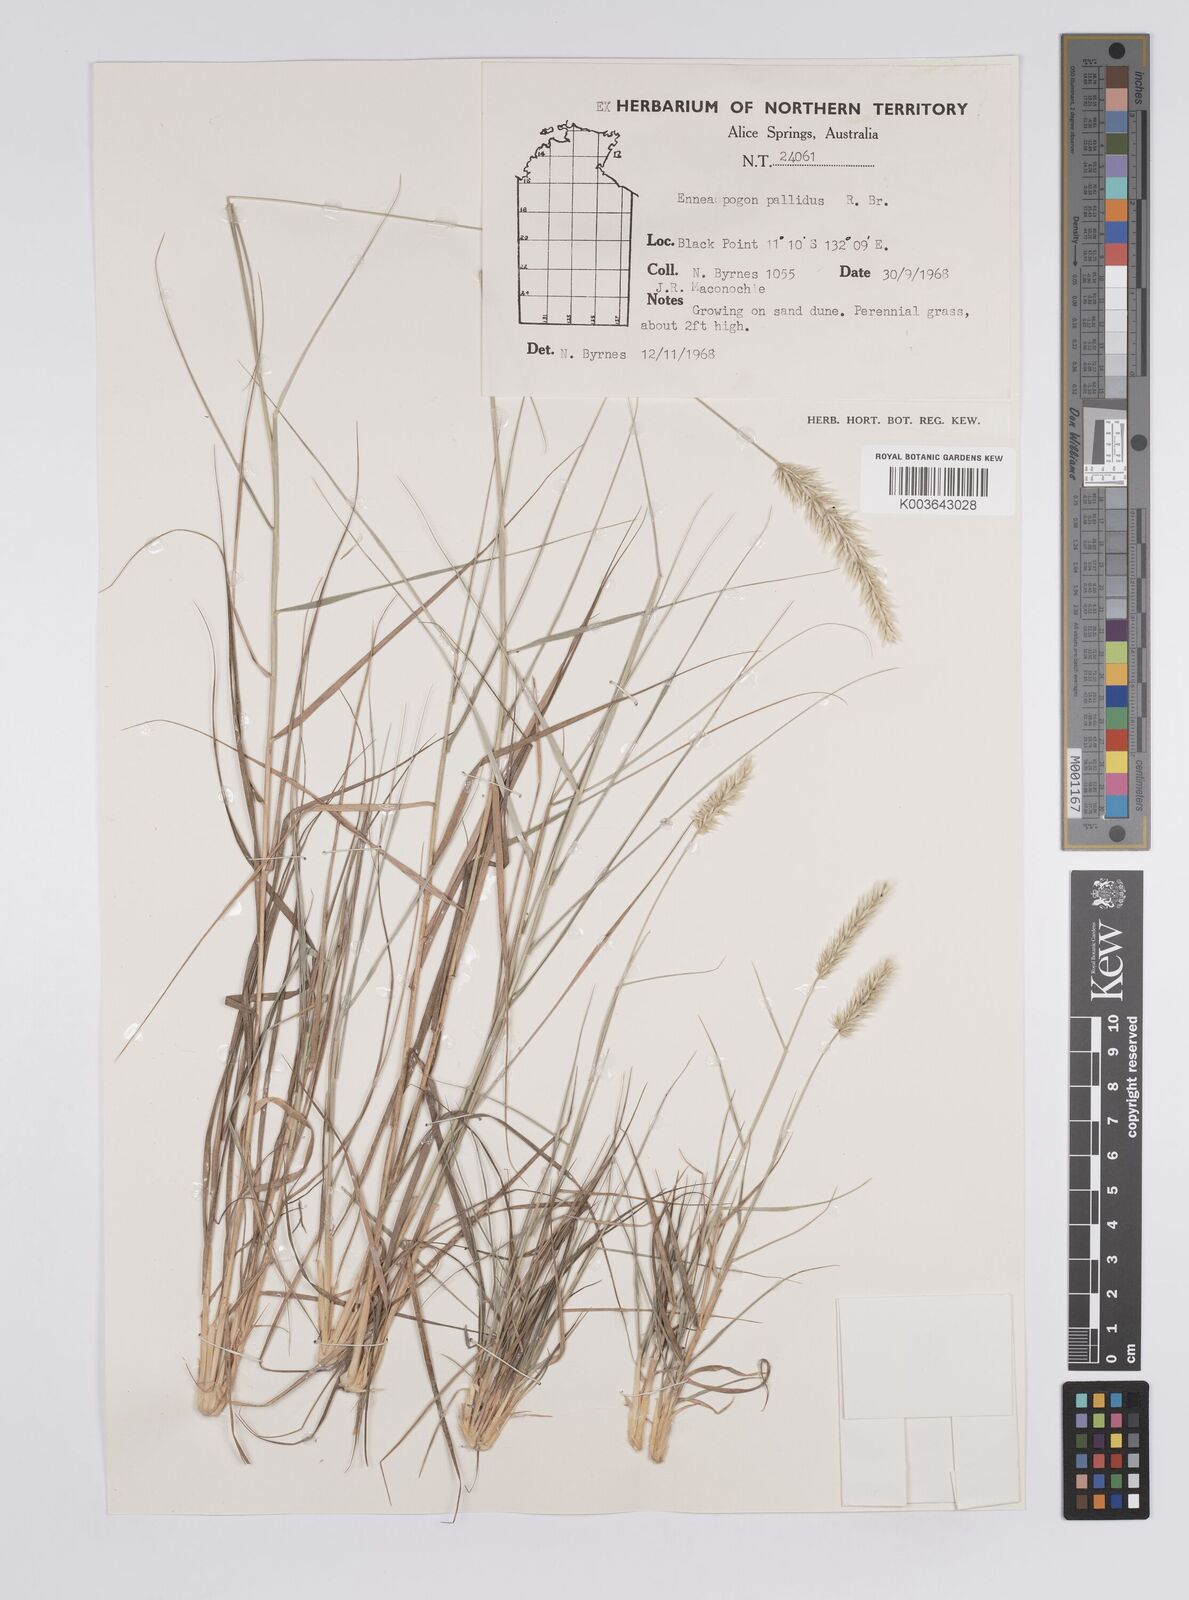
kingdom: Plantae
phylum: Tracheophyta
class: Liliopsida
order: Poales
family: Poaceae
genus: Enneapogon
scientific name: Enneapogon pallidus
